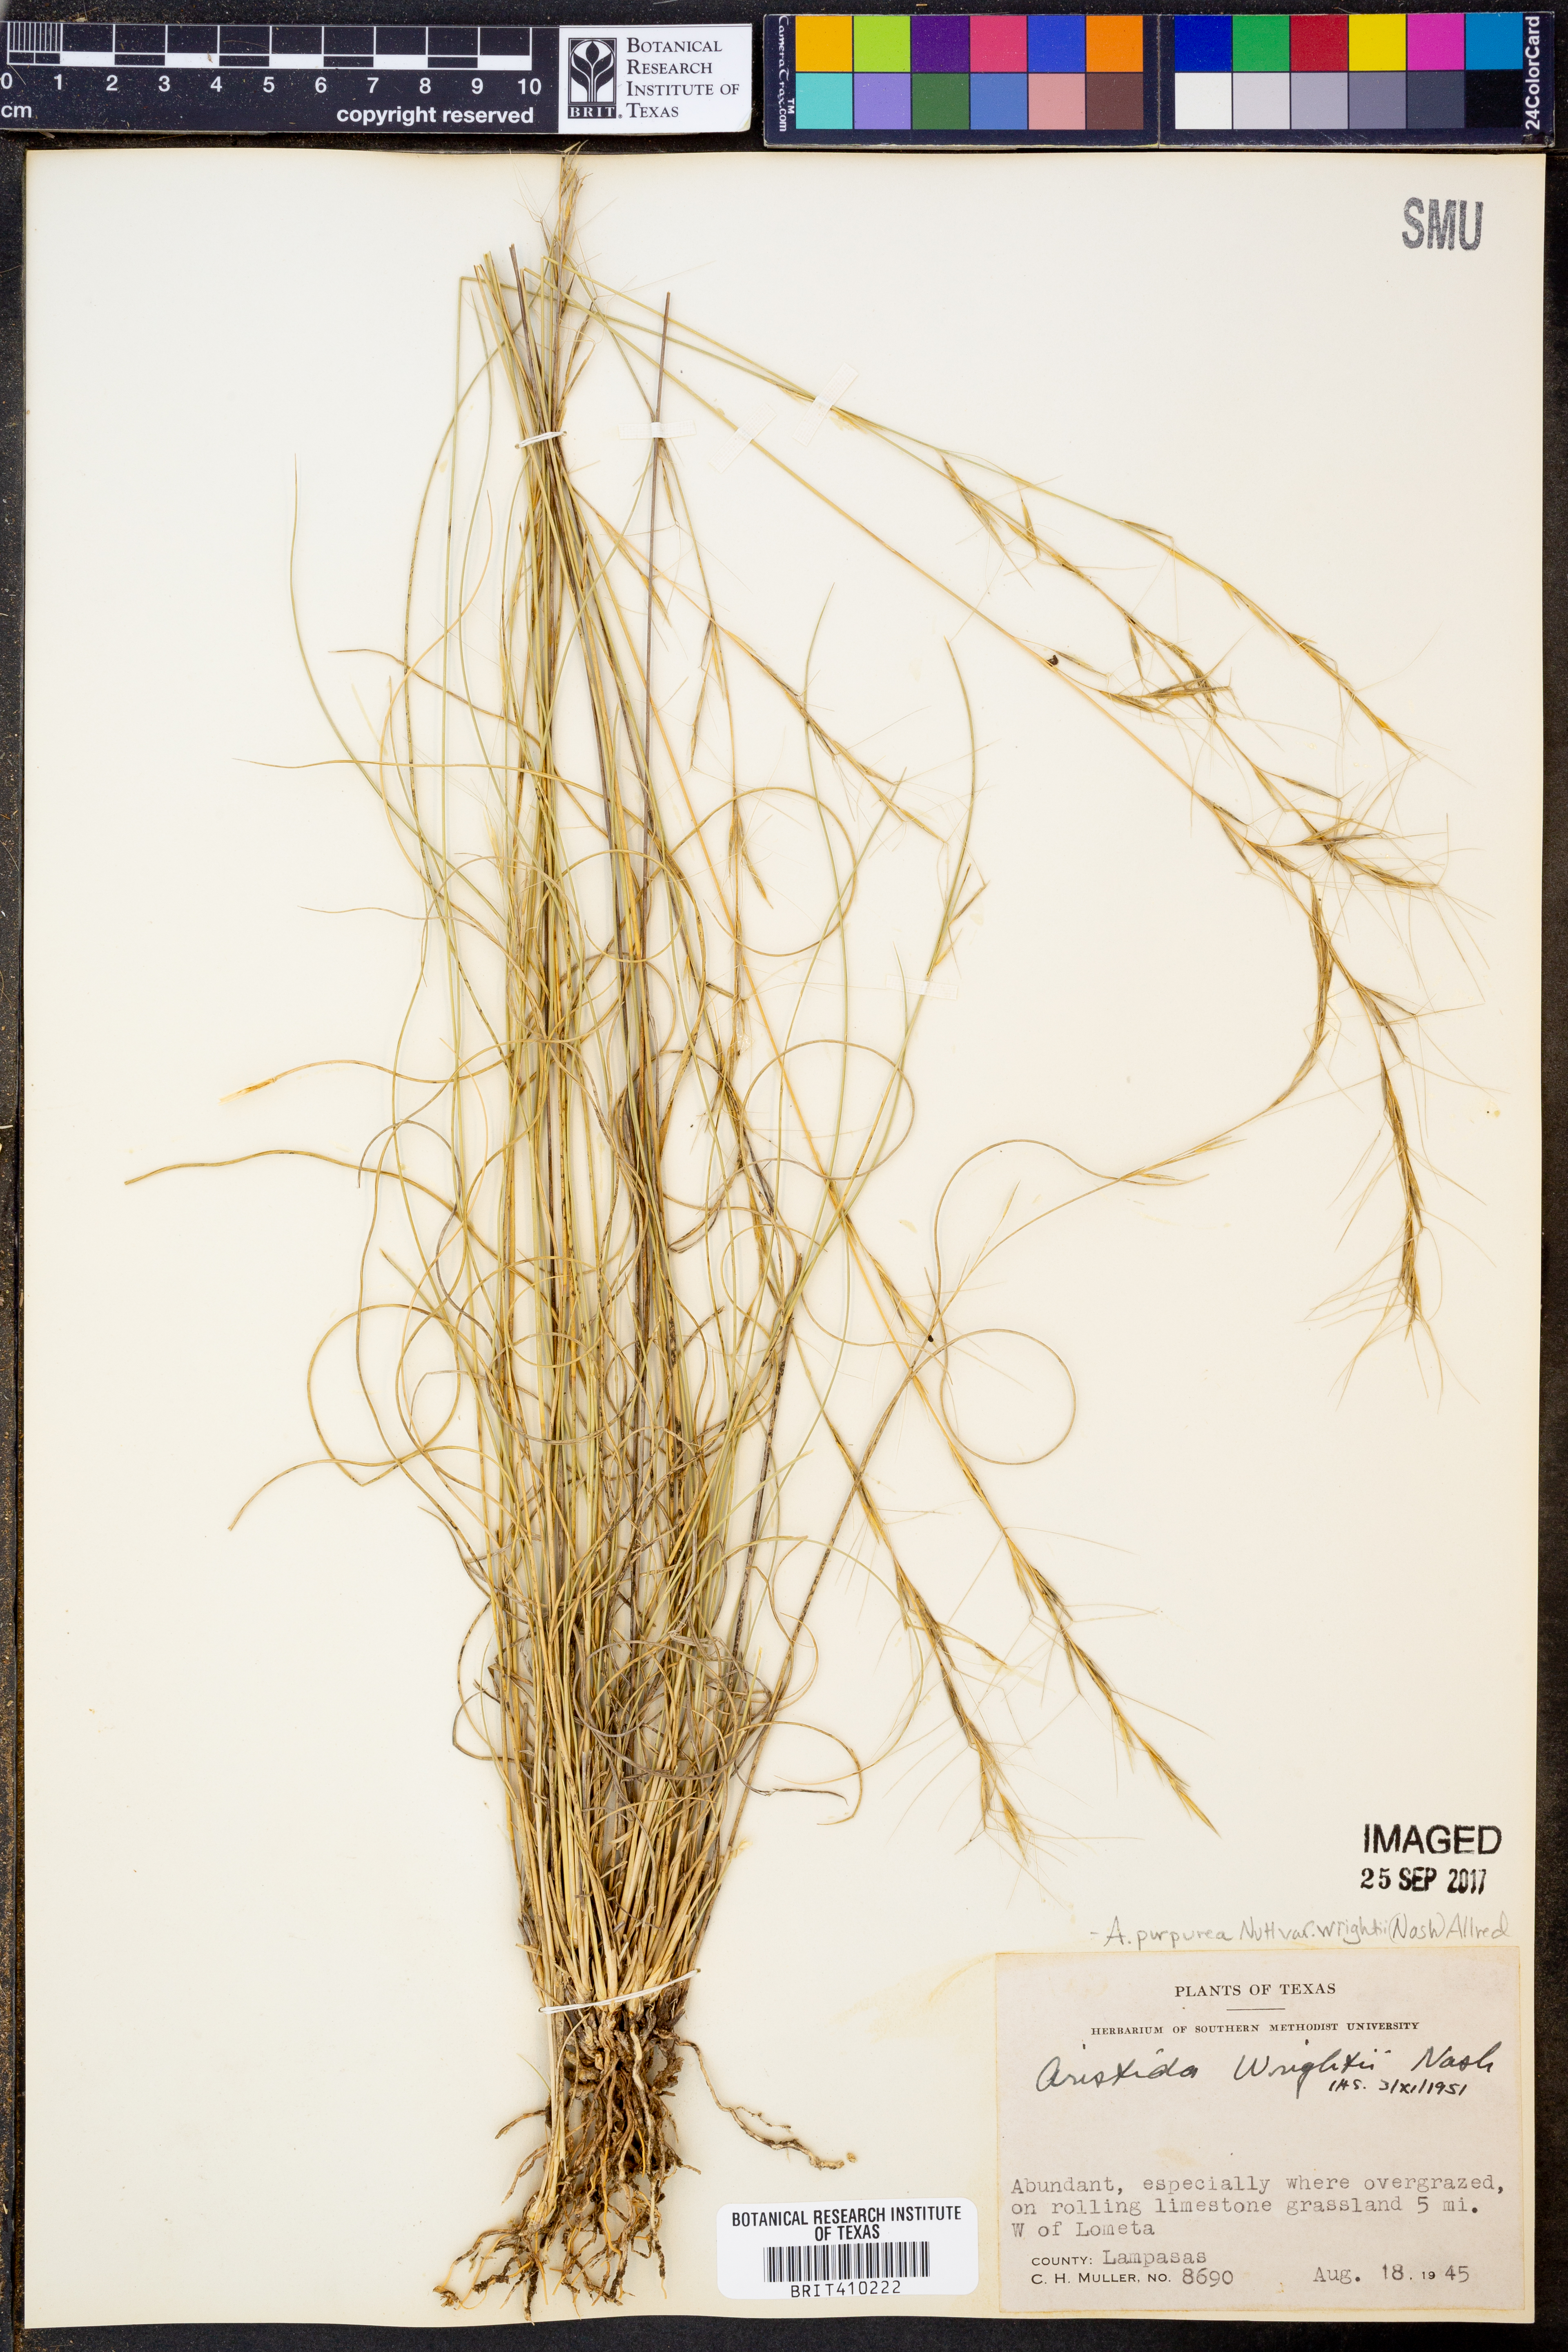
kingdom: Plantae
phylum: Tracheophyta
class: Liliopsida
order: Poales
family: Poaceae
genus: Aristida
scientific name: Aristida wrightii
